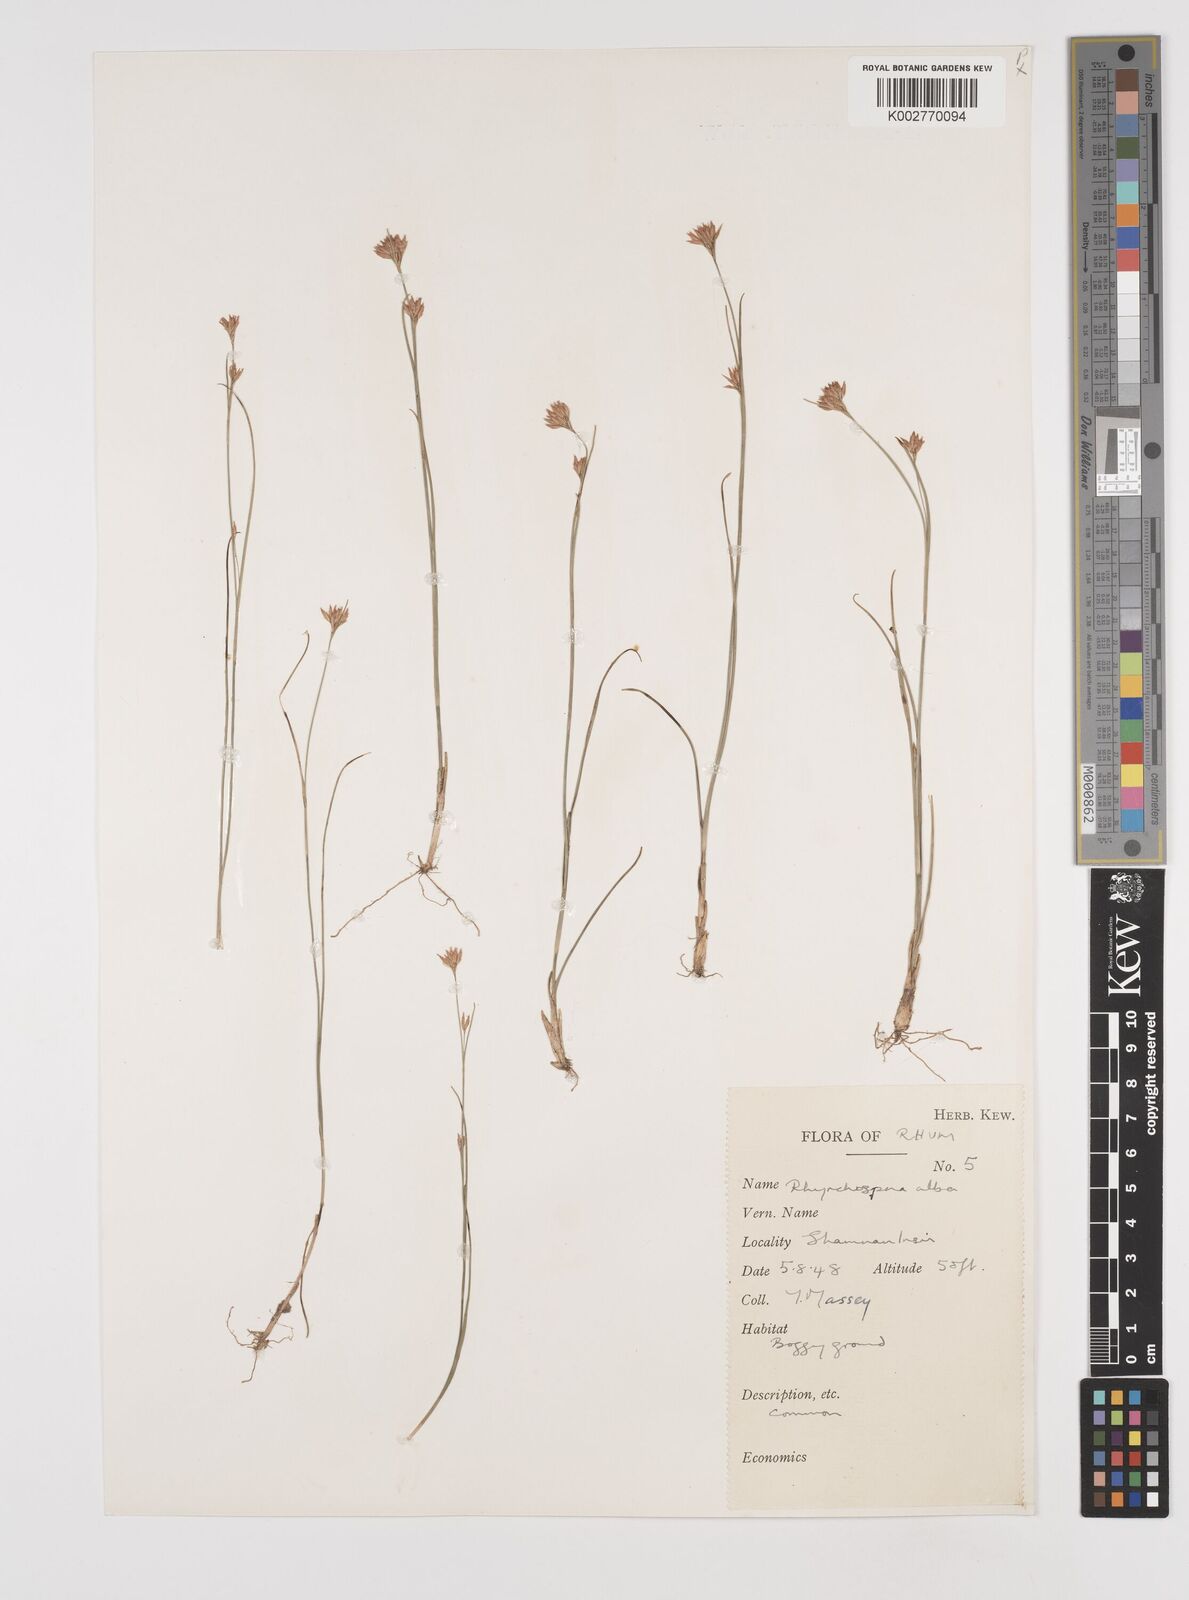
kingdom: Plantae
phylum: Tracheophyta
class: Liliopsida
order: Poales
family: Cyperaceae
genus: Rhynchospora
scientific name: Rhynchospora alba
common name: White beak-sedge
